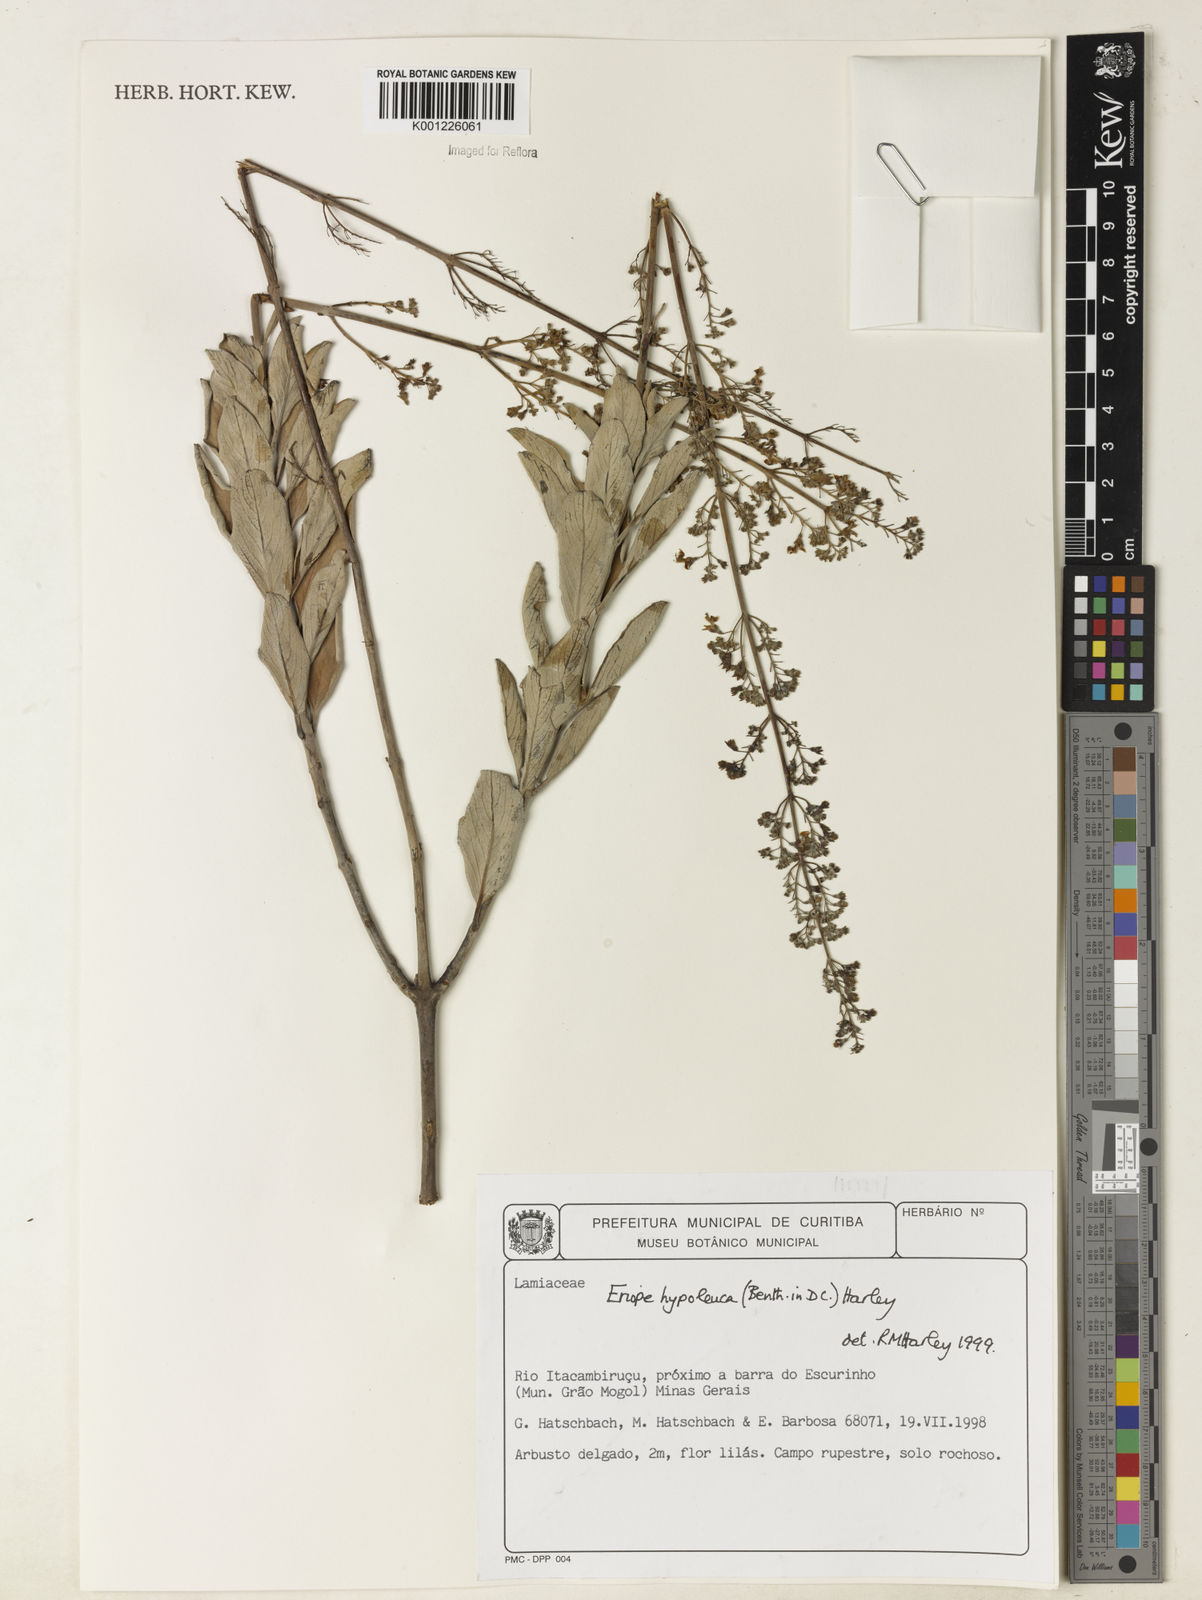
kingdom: Plantae
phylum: Tracheophyta
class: Magnoliopsida
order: Lamiales
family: Lamiaceae
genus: Eriope
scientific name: Eriope hypoleuca
